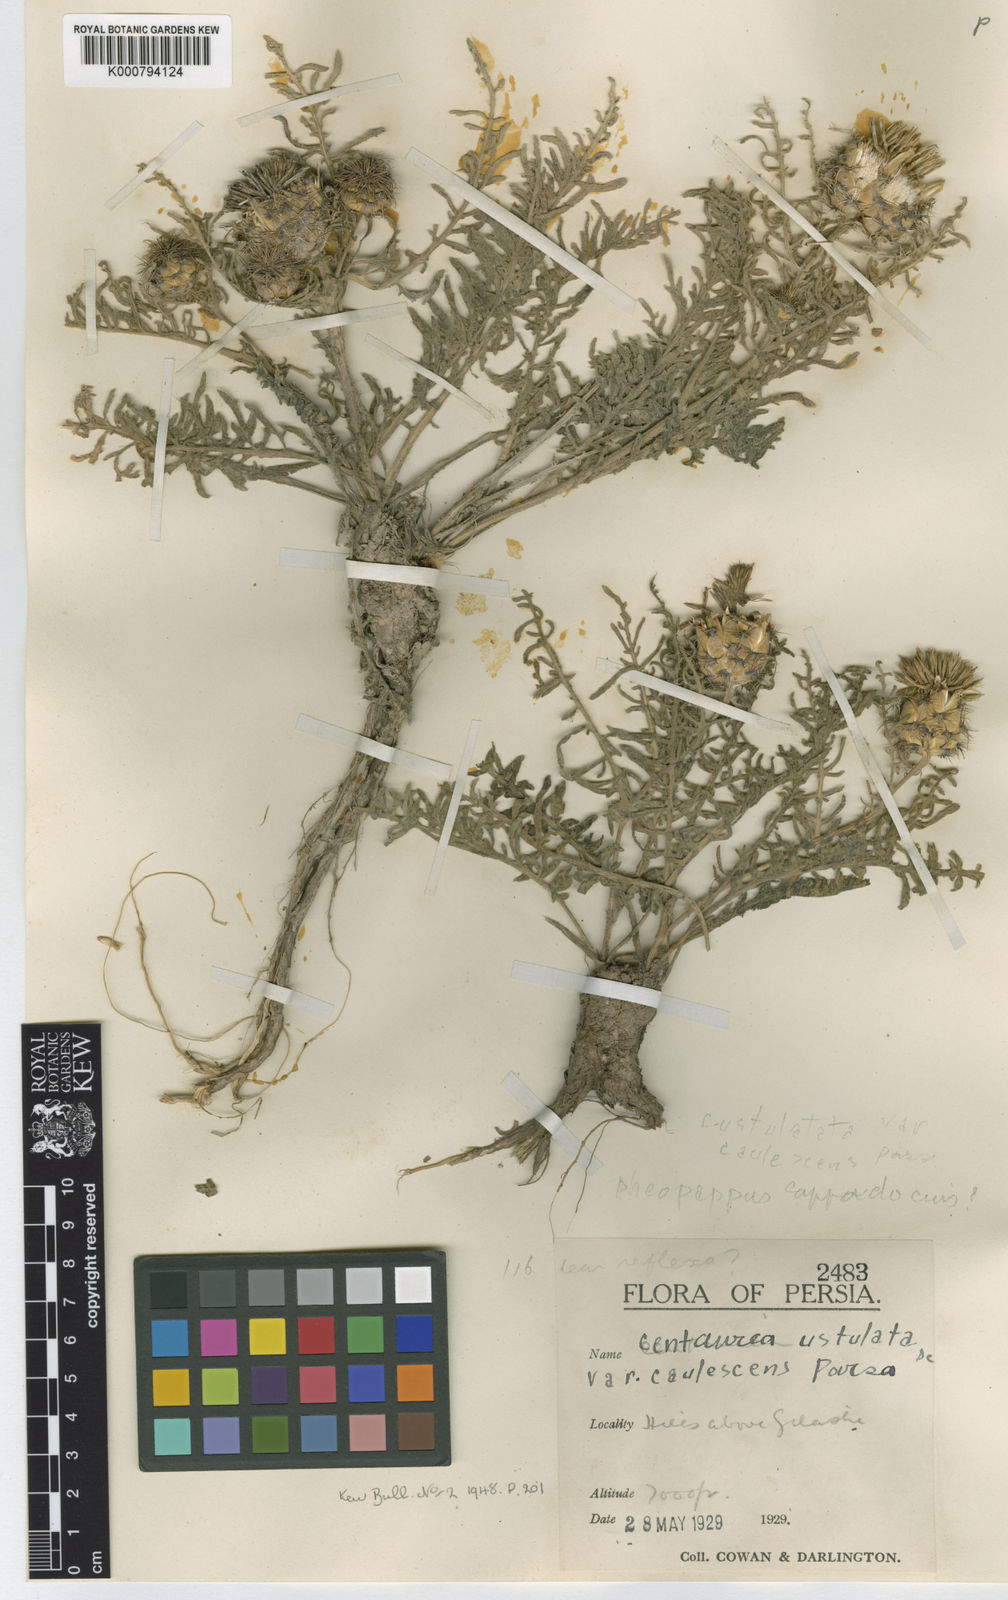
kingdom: Plantae
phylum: Tracheophyta
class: Magnoliopsida
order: Asterales
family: Asteraceae
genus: Centaurea
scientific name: Centaurea ustulata
